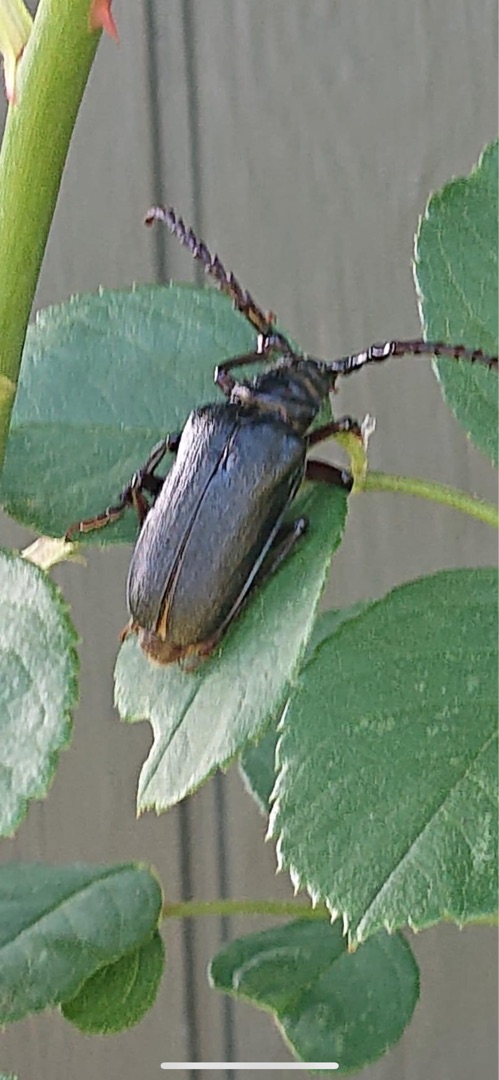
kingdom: Animalia
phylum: Arthropoda
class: Insecta
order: Coleoptera
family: Cerambycidae
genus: Prionus
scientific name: Prionus coriarius
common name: Garver
